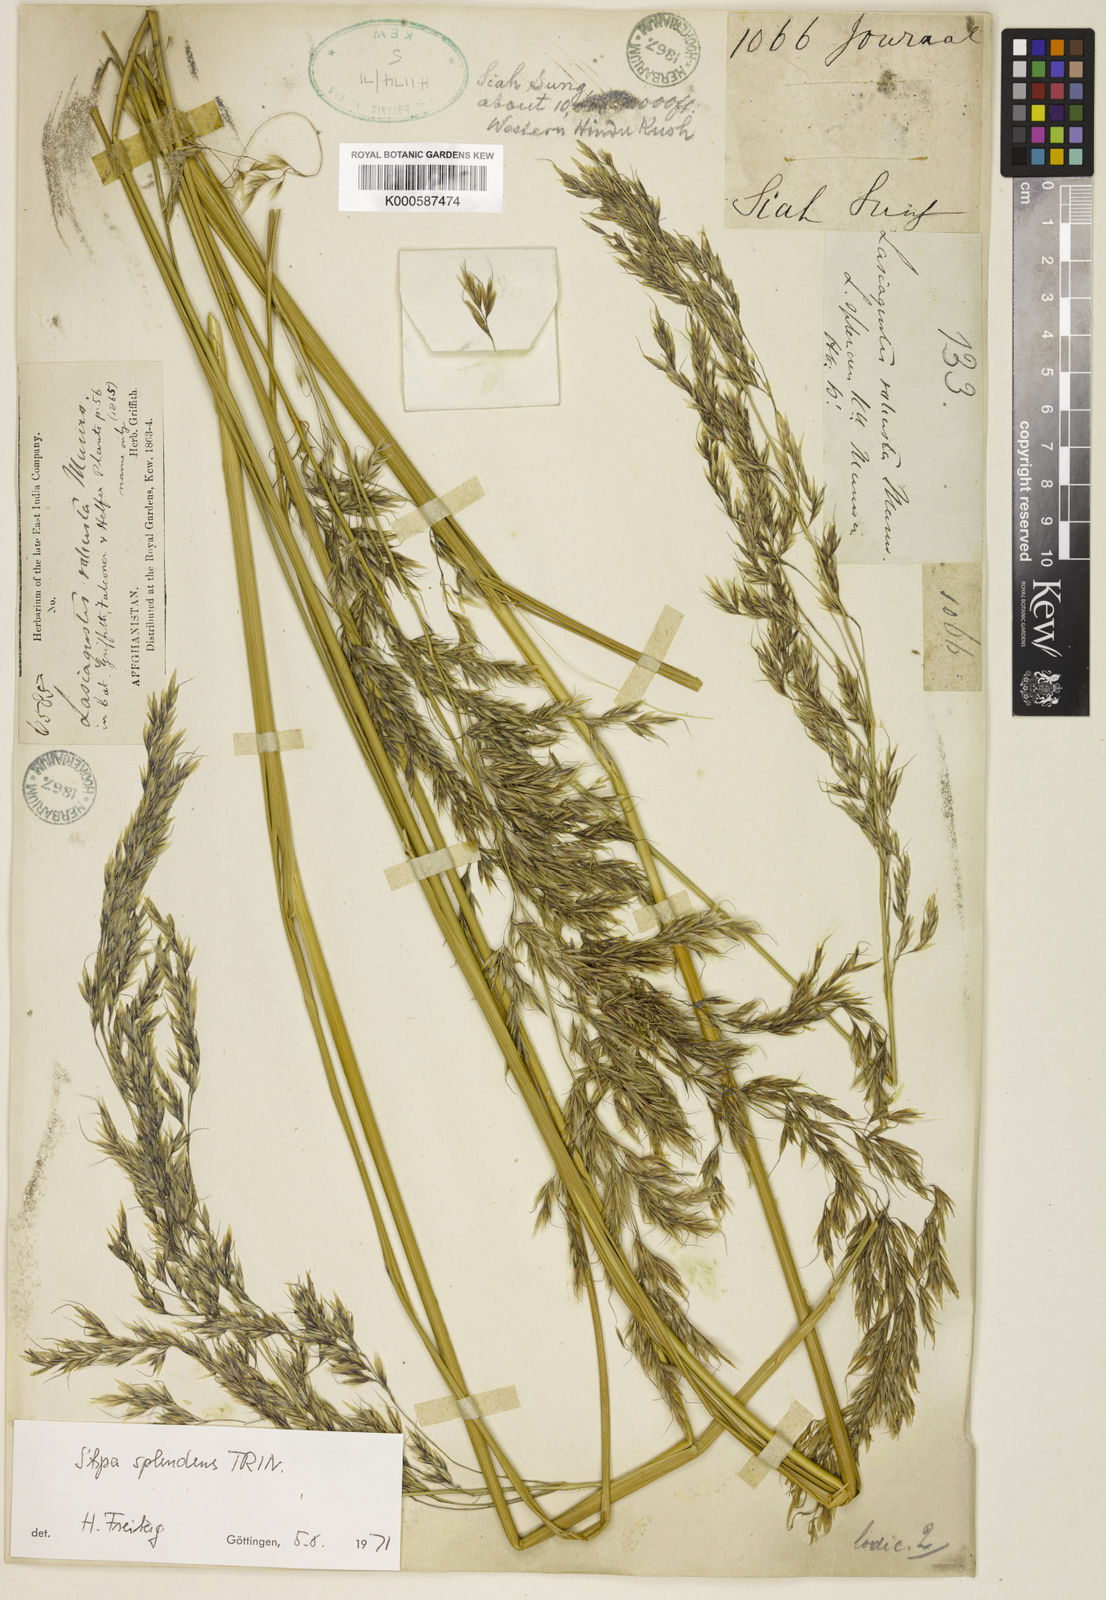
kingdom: Plantae
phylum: Tracheophyta
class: Liliopsida
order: Poales
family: Poaceae
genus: Neotrinia
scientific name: Neotrinia splendens
